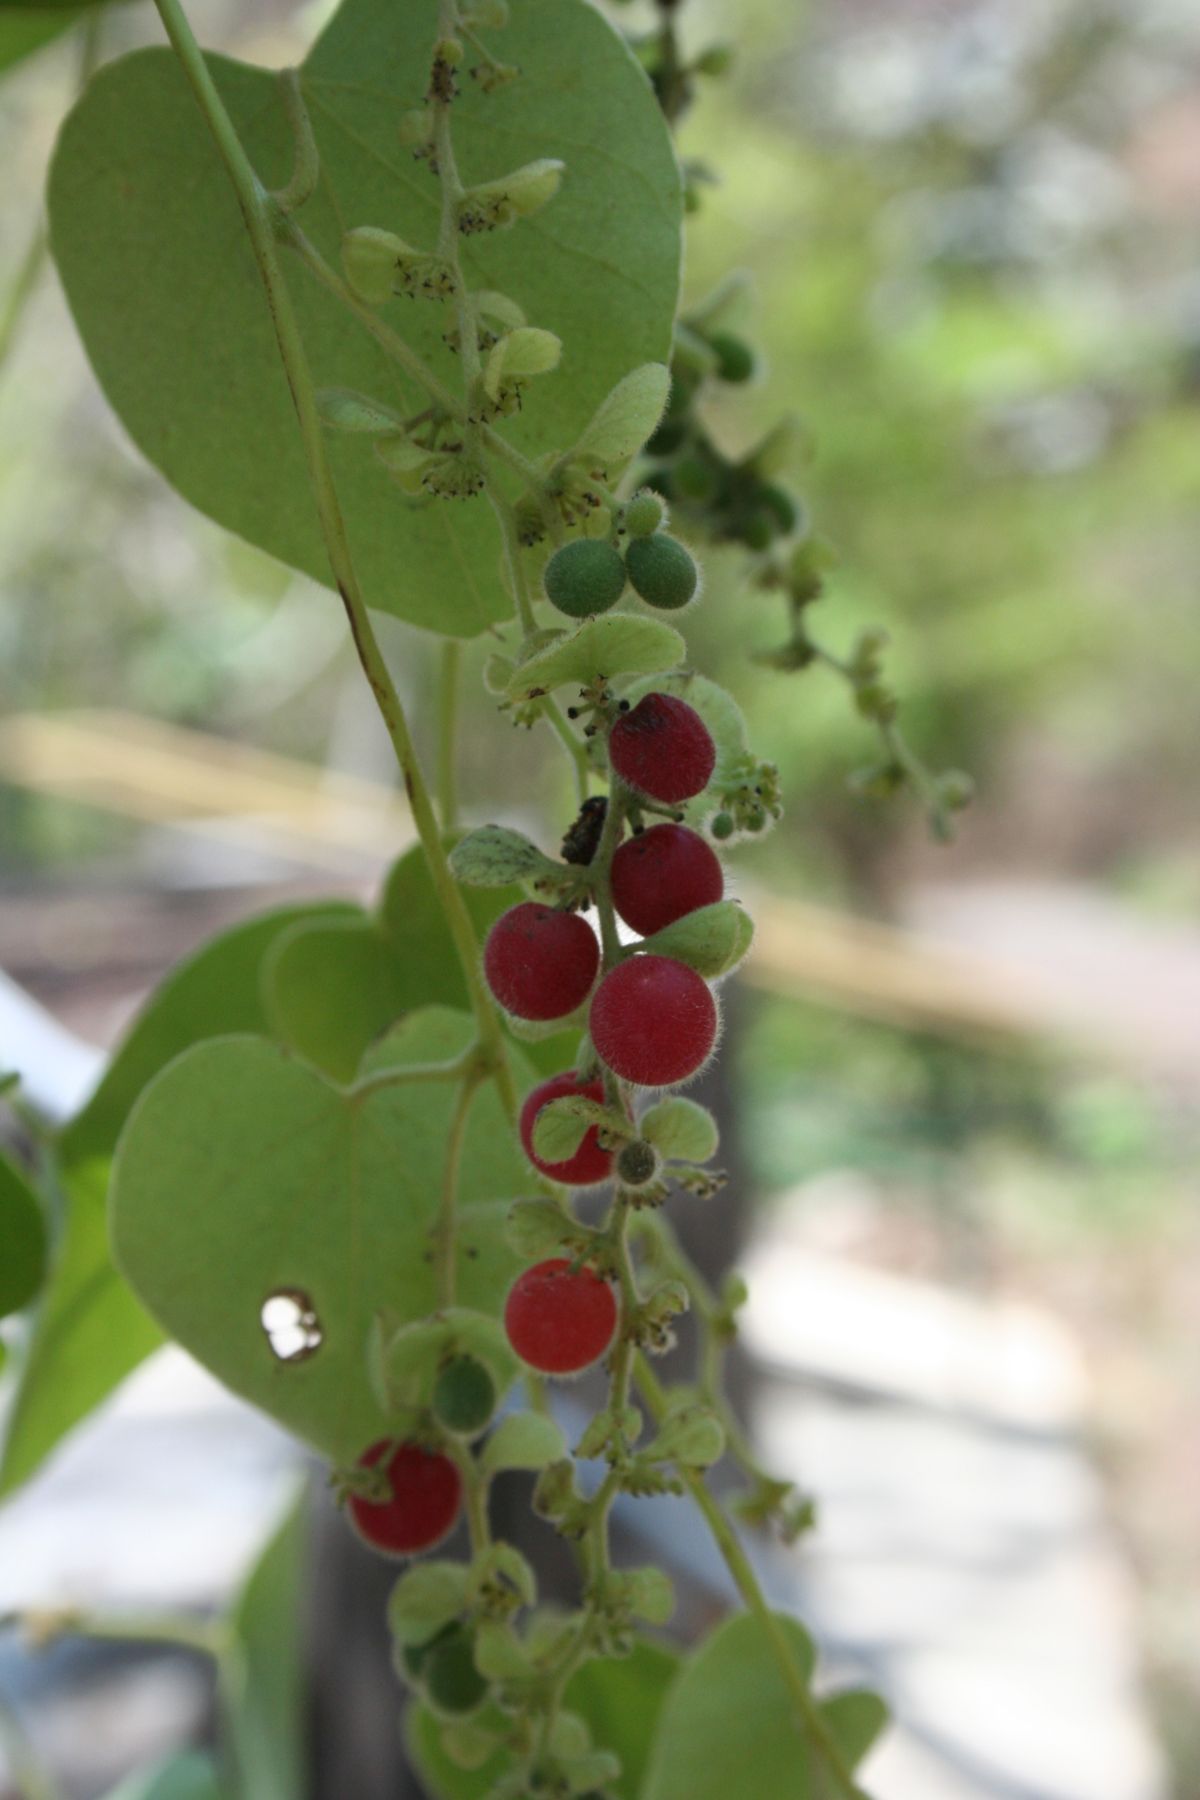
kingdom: Plantae
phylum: Tracheophyta
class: Magnoliopsida
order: Ranunculales
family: Menispermaceae
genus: Cissampelos
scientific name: Cissampelos pareira
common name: Velvetleaf
